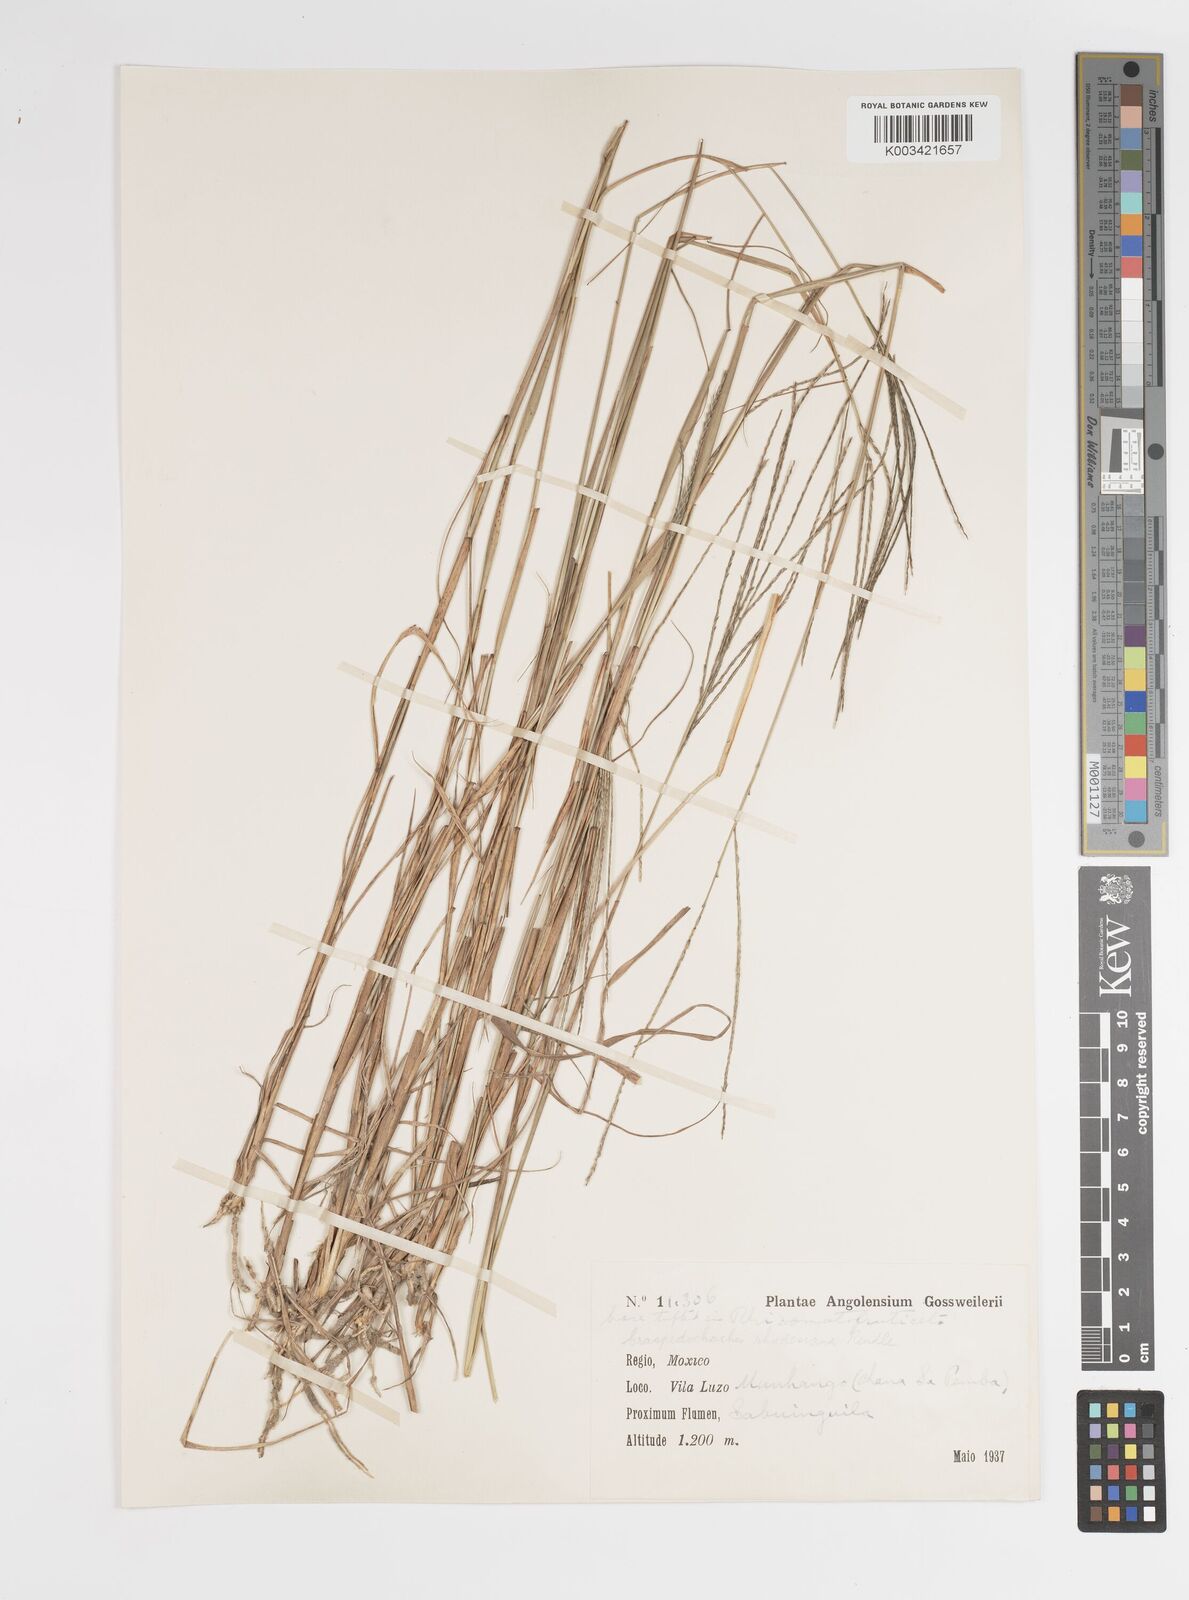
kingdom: Plantae
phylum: Tracheophyta
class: Liliopsida
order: Poales
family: Poaceae
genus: Craspedorhachis
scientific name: Craspedorhachis rhodesiana
